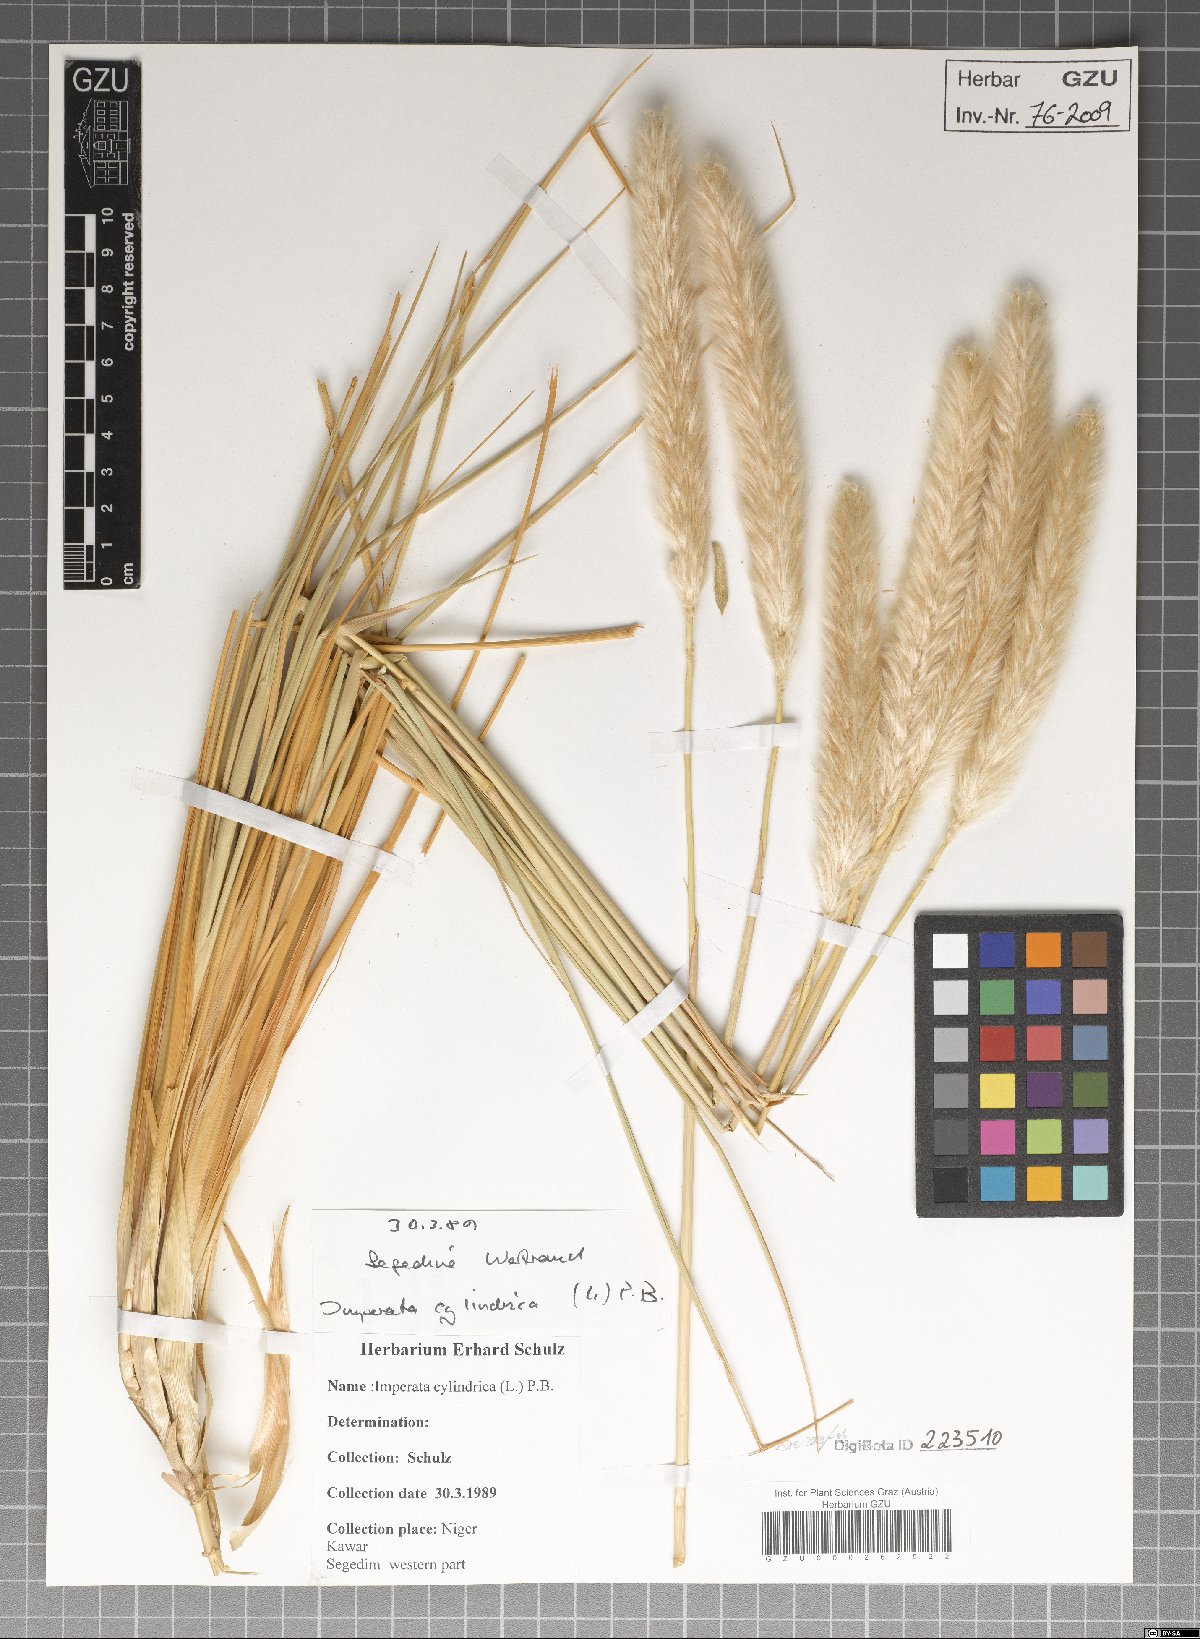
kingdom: Plantae
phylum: Tracheophyta
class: Liliopsida
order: Poales
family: Poaceae
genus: Imperata
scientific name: Imperata cylindrica
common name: Cogongrass
